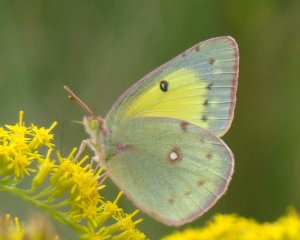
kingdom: Animalia
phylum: Arthropoda
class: Insecta
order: Lepidoptera
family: Pieridae
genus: Colias
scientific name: Colias philodice
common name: Clouded Sulphur
